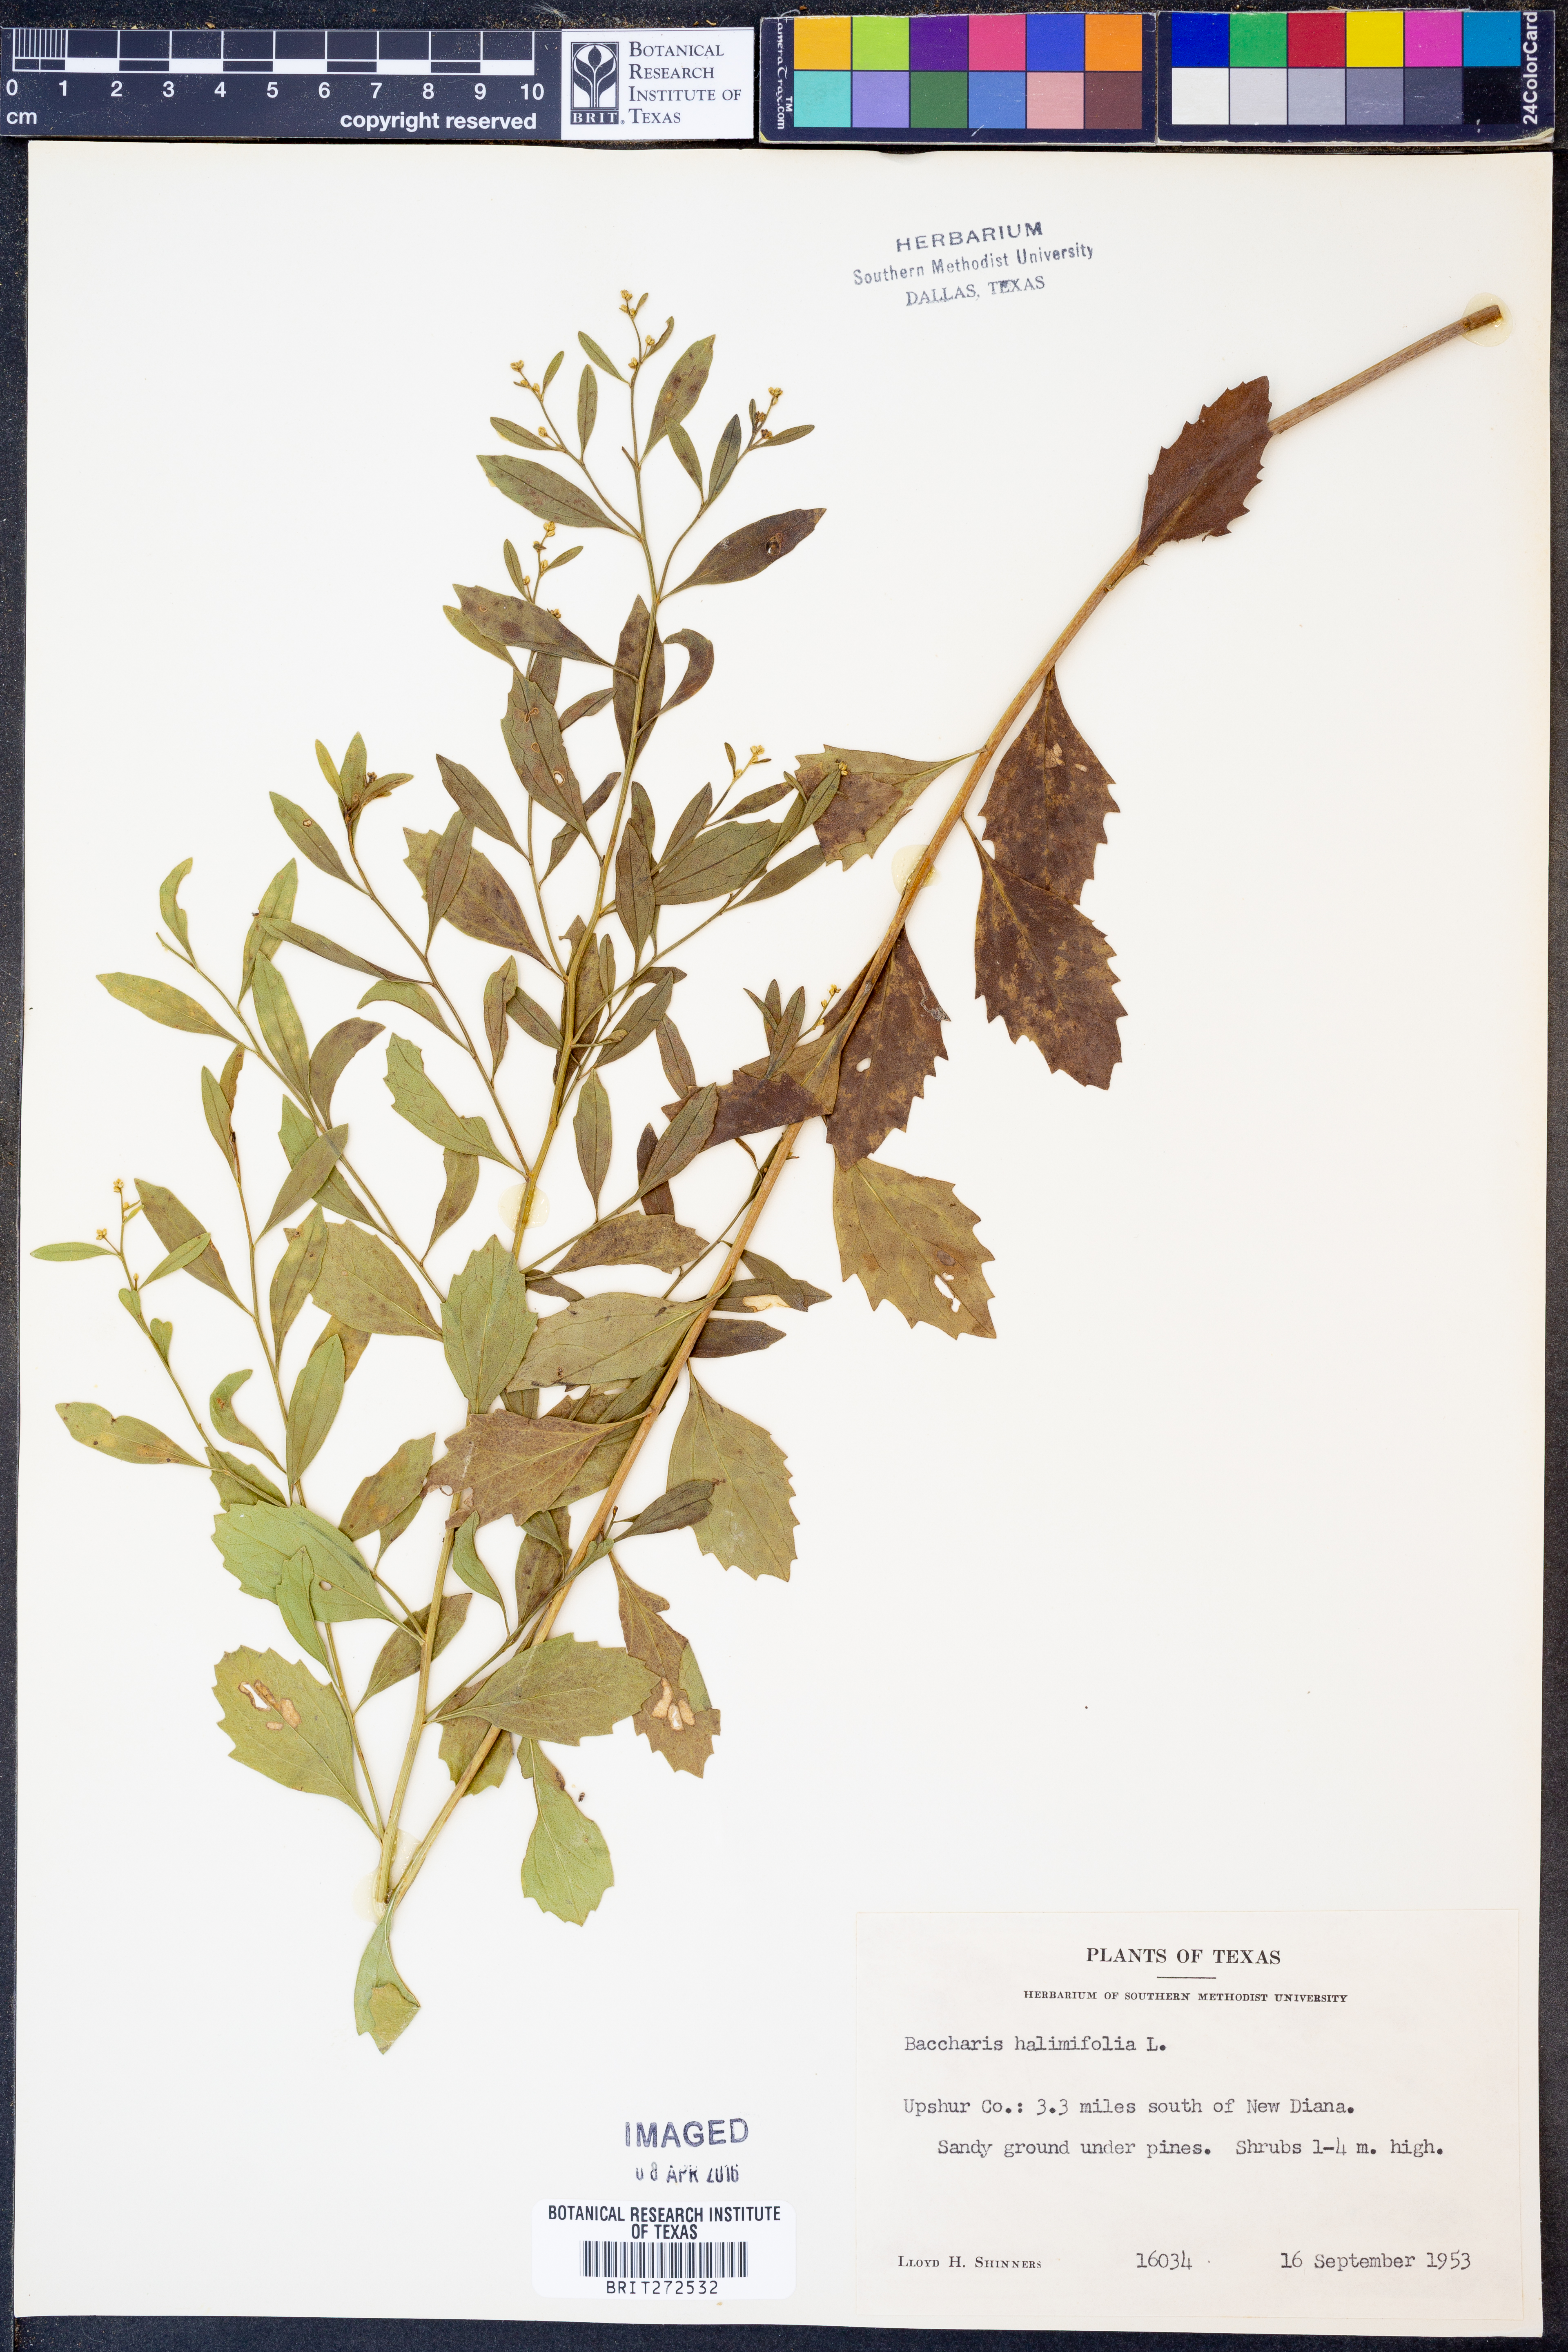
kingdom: Plantae
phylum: Tracheophyta
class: Magnoliopsida
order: Asterales
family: Asteraceae
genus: Nidorella
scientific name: Nidorella ivifolia
